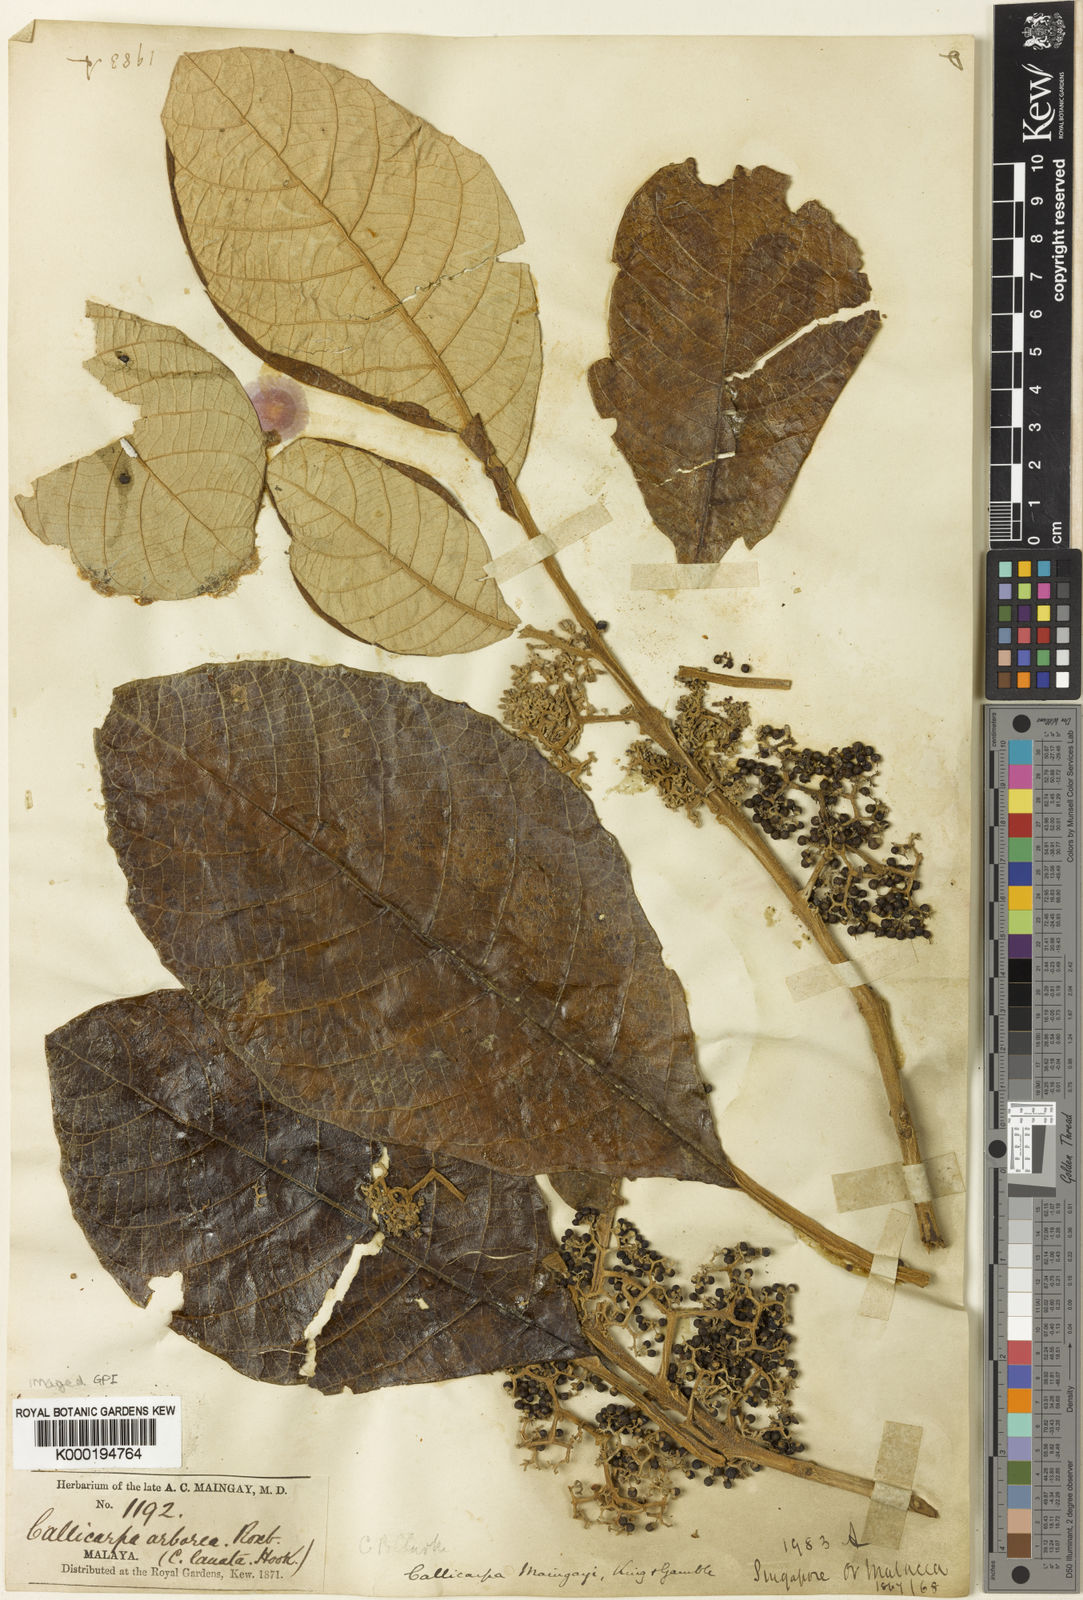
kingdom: Plantae
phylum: Tracheophyta
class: Magnoliopsida
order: Lamiales
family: Lamiaceae
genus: Callicarpa
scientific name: Callicarpa maingayi
